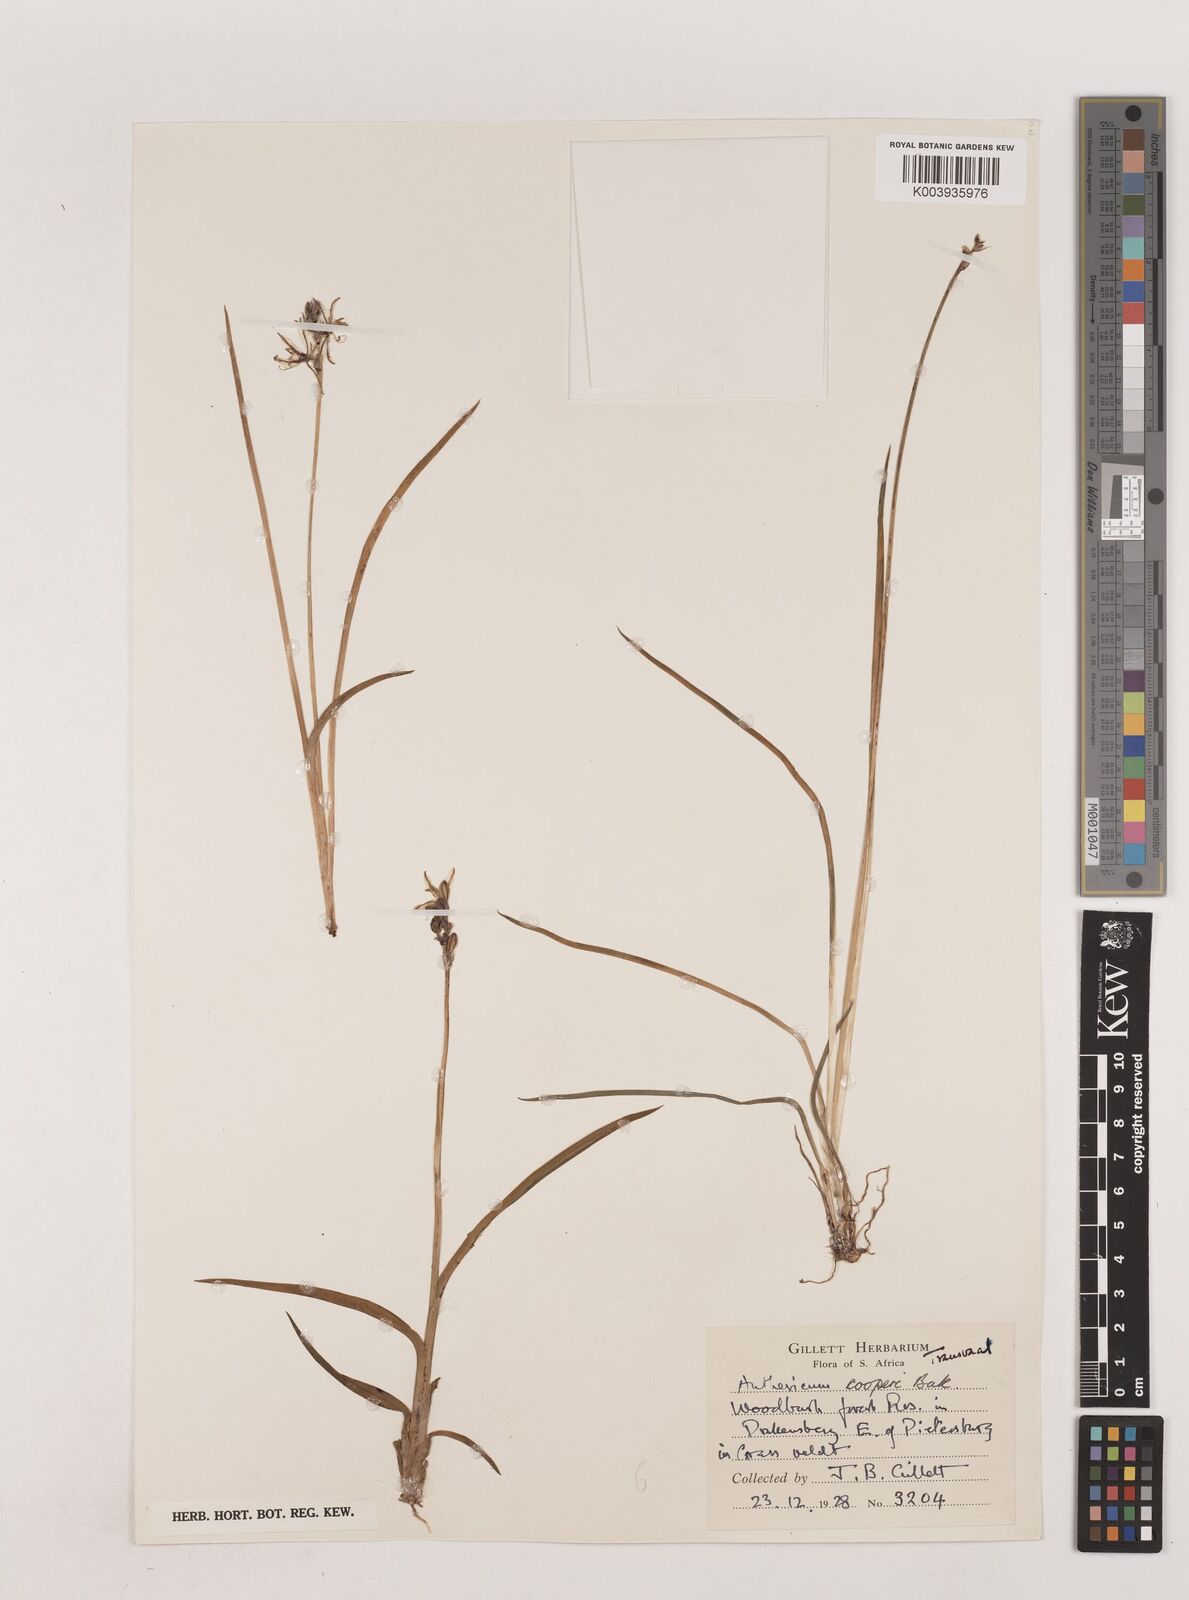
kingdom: Plantae
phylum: Tracheophyta
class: Liliopsida
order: Asparagales
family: Asparagaceae
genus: Chlorophytum
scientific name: Chlorophytum cooperi
